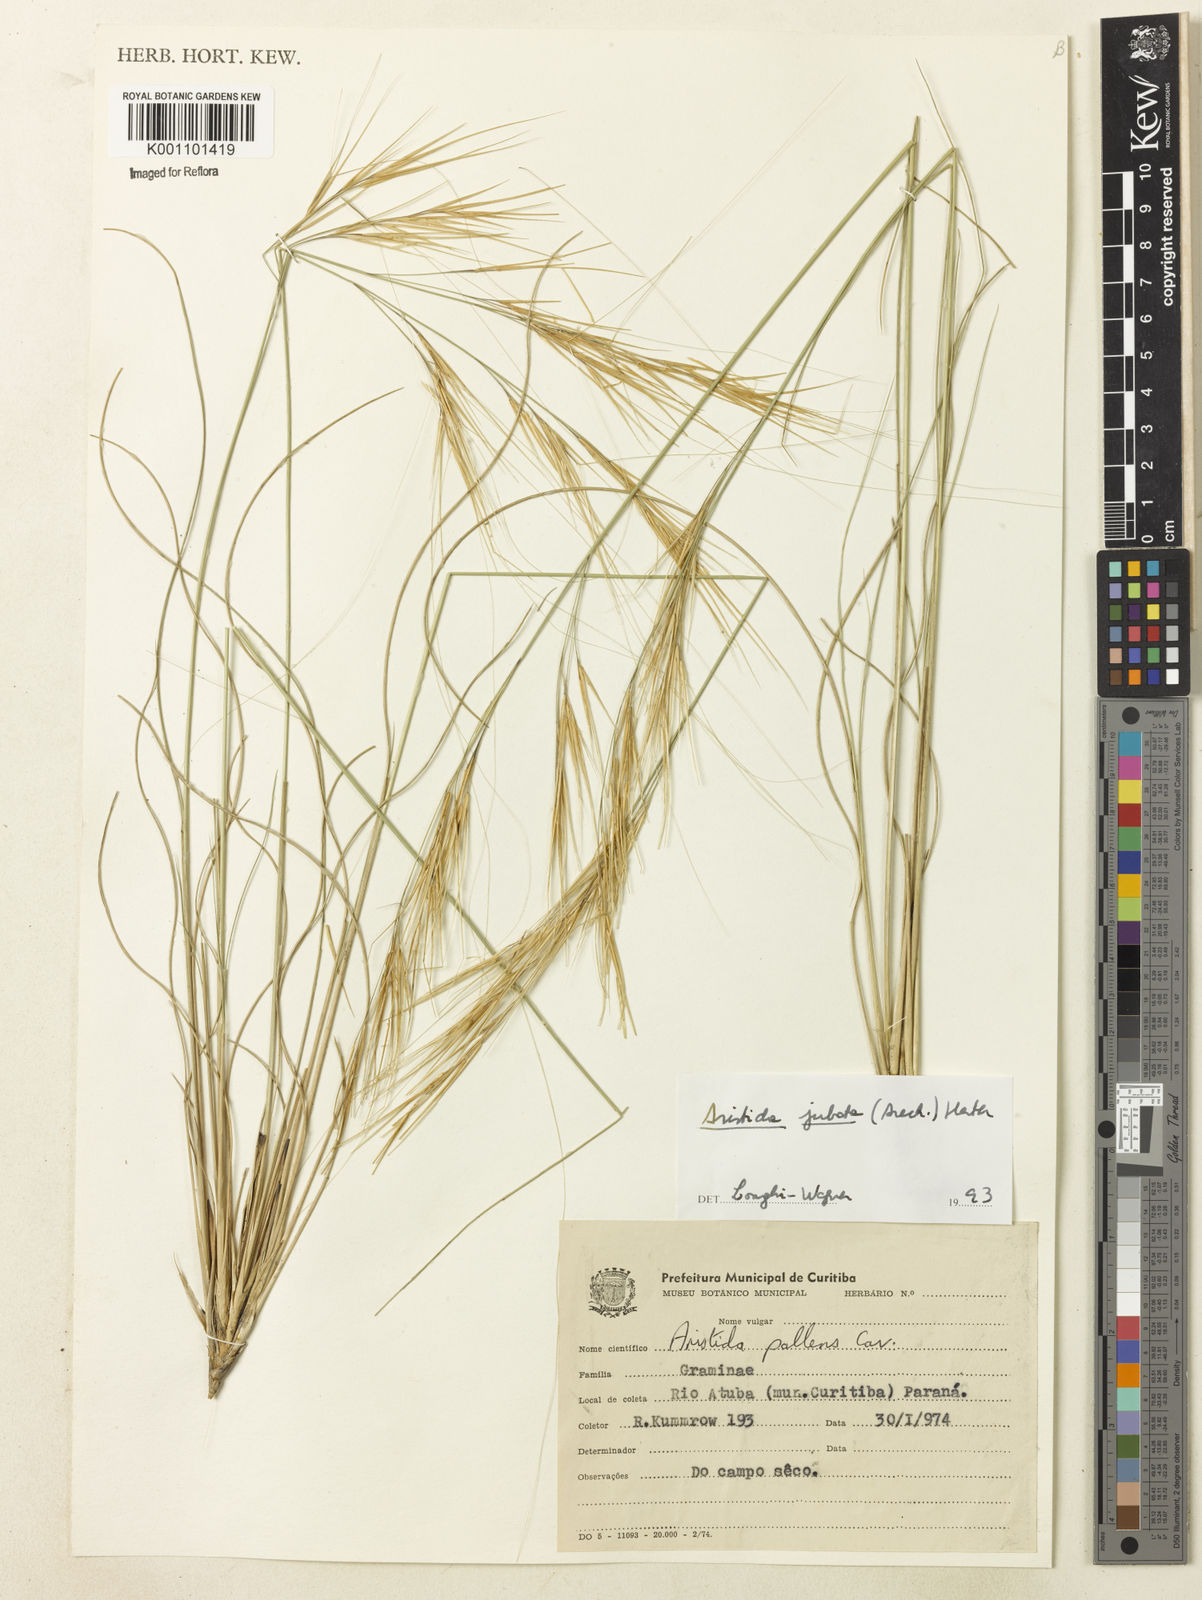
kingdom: Plantae
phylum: Tracheophyta
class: Liliopsida
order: Poales
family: Poaceae
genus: Aristida
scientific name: Aristida jubata
